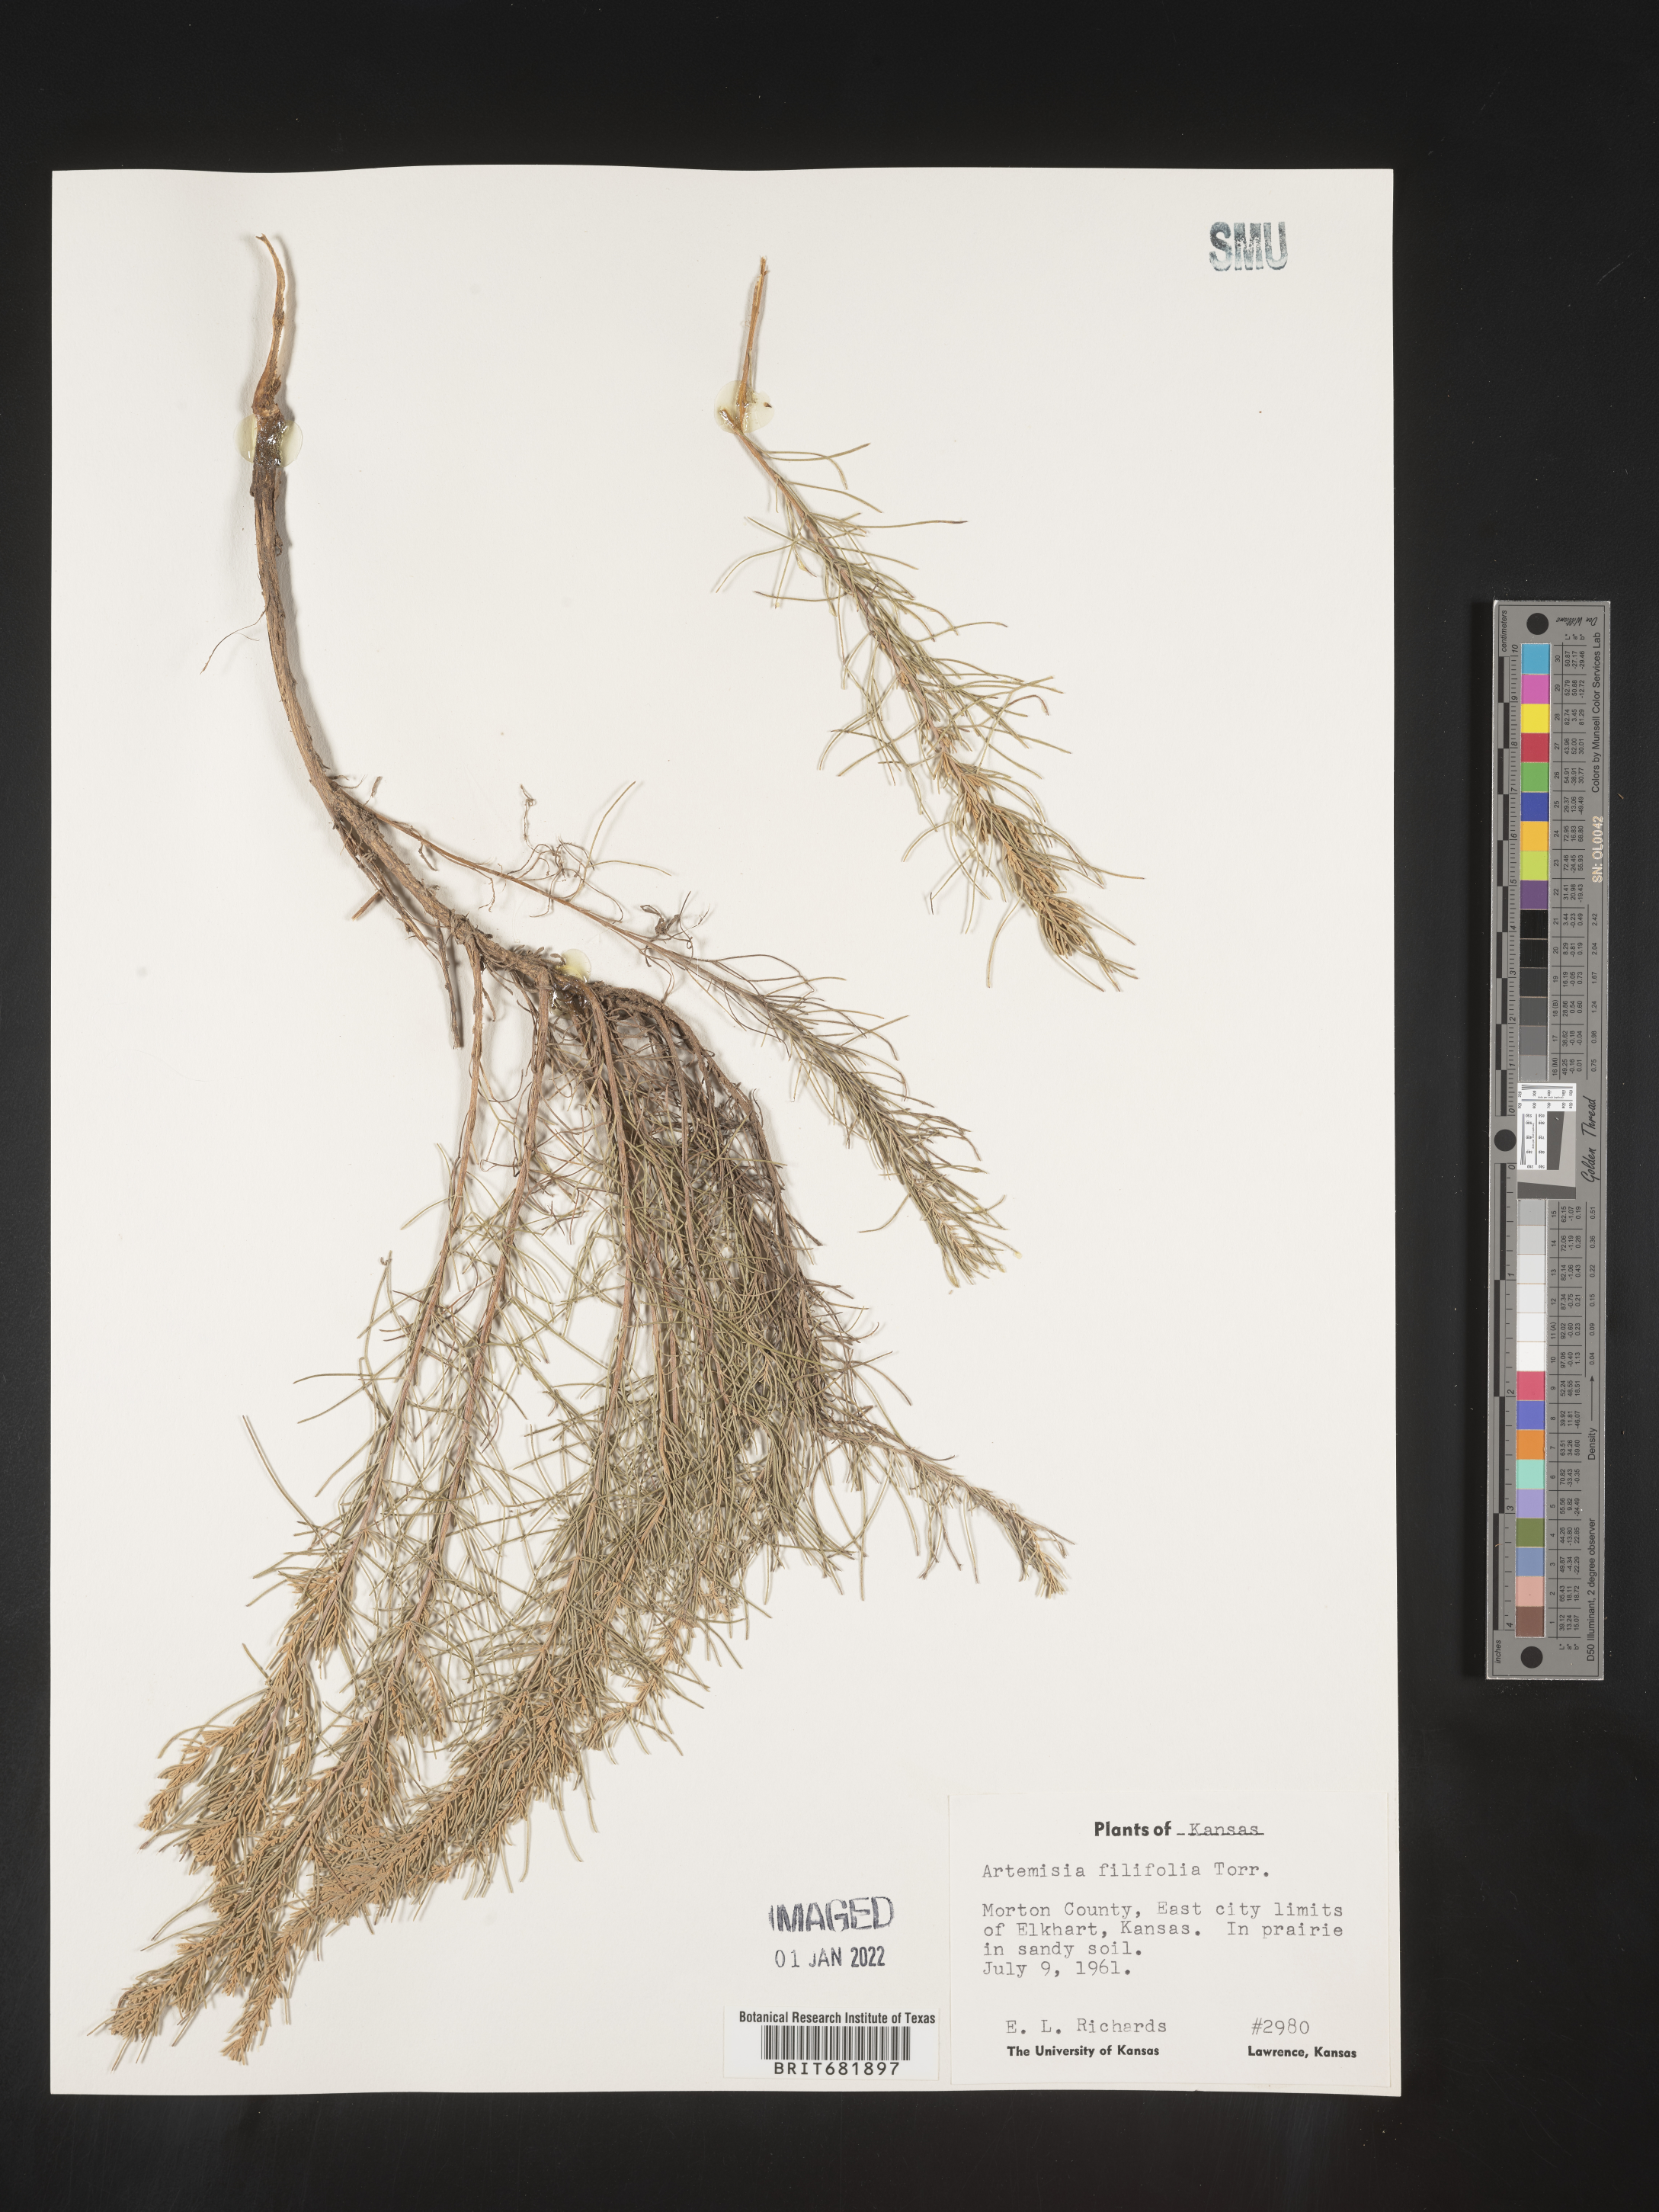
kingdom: Plantae
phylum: Tracheophyta
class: Magnoliopsida
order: Asterales
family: Asteraceae
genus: Artemisia
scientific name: Artemisia filifolia
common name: Sand-sage
